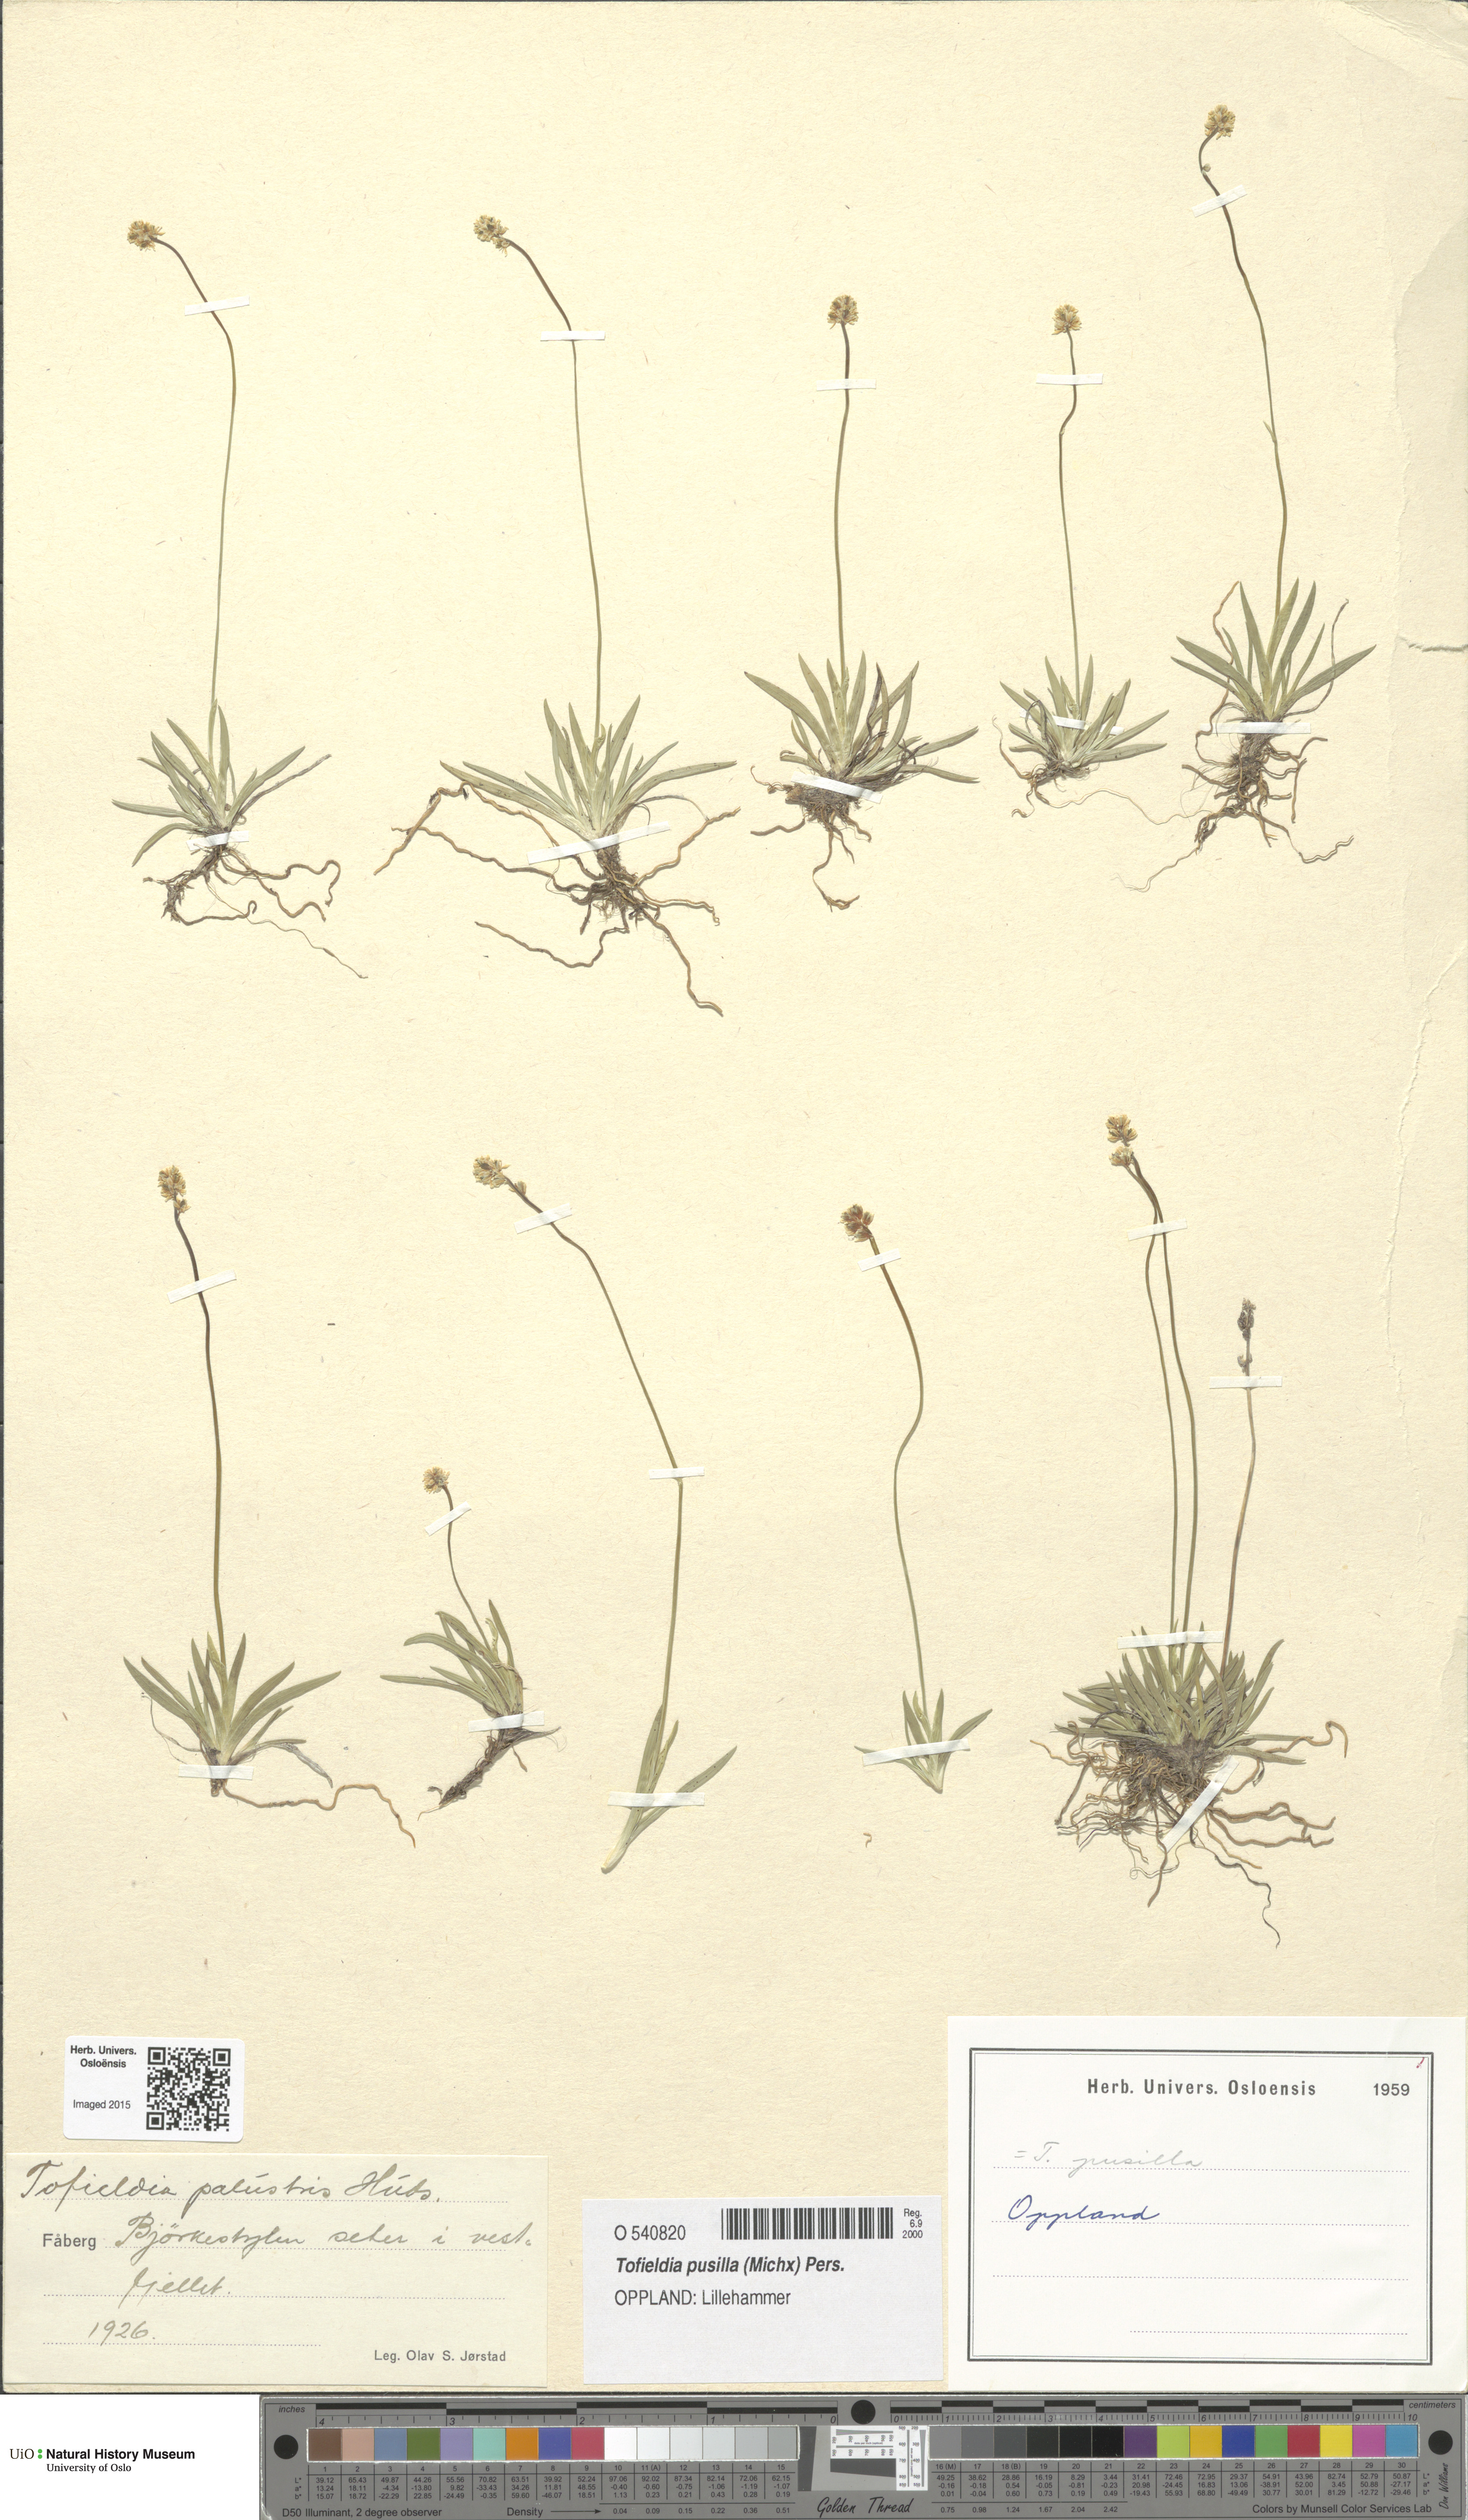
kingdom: Plantae
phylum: Tracheophyta
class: Liliopsida
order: Alismatales
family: Tofieldiaceae
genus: Tofieldia
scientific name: Tofieldia pusilla
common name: Scottish false asphodel
